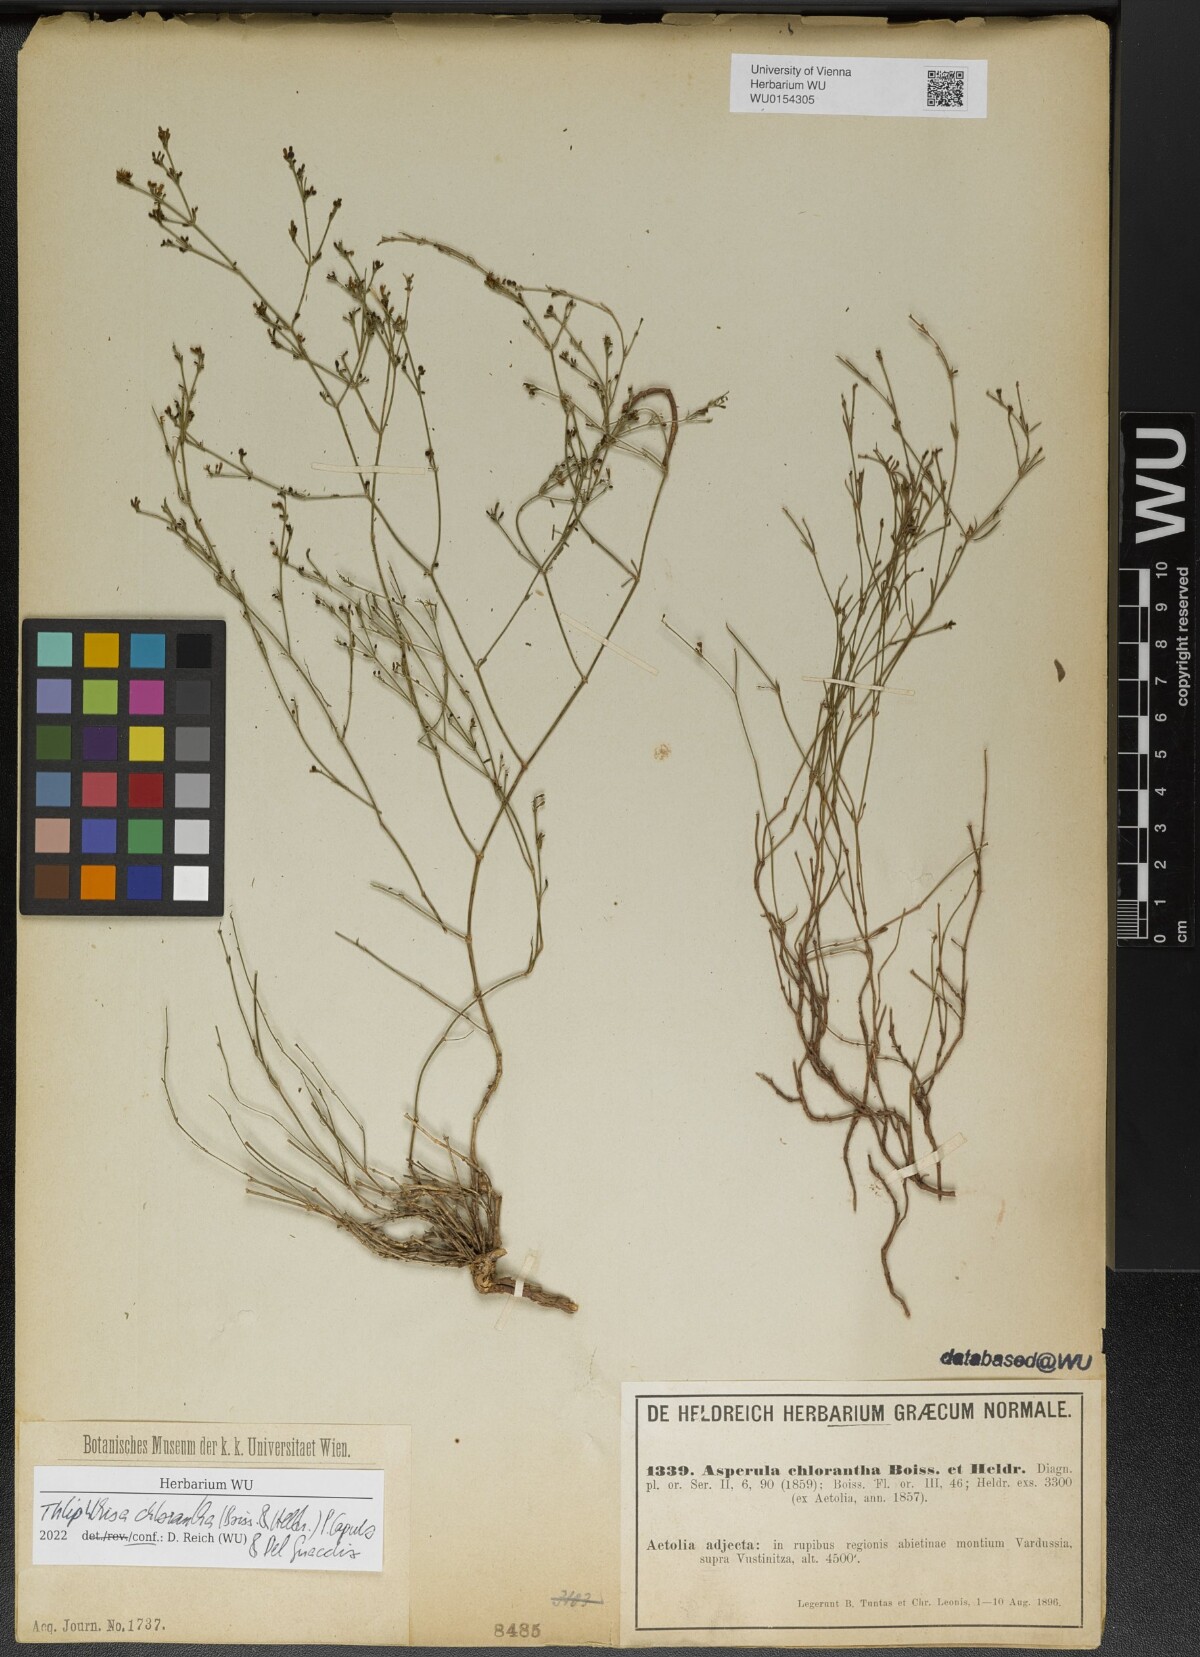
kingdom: Plantae
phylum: Tracheophyta
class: Magnoliopsida
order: Gentianales
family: Rubiaceae
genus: Thliphthisa
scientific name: Thliphthisa chlorantha
